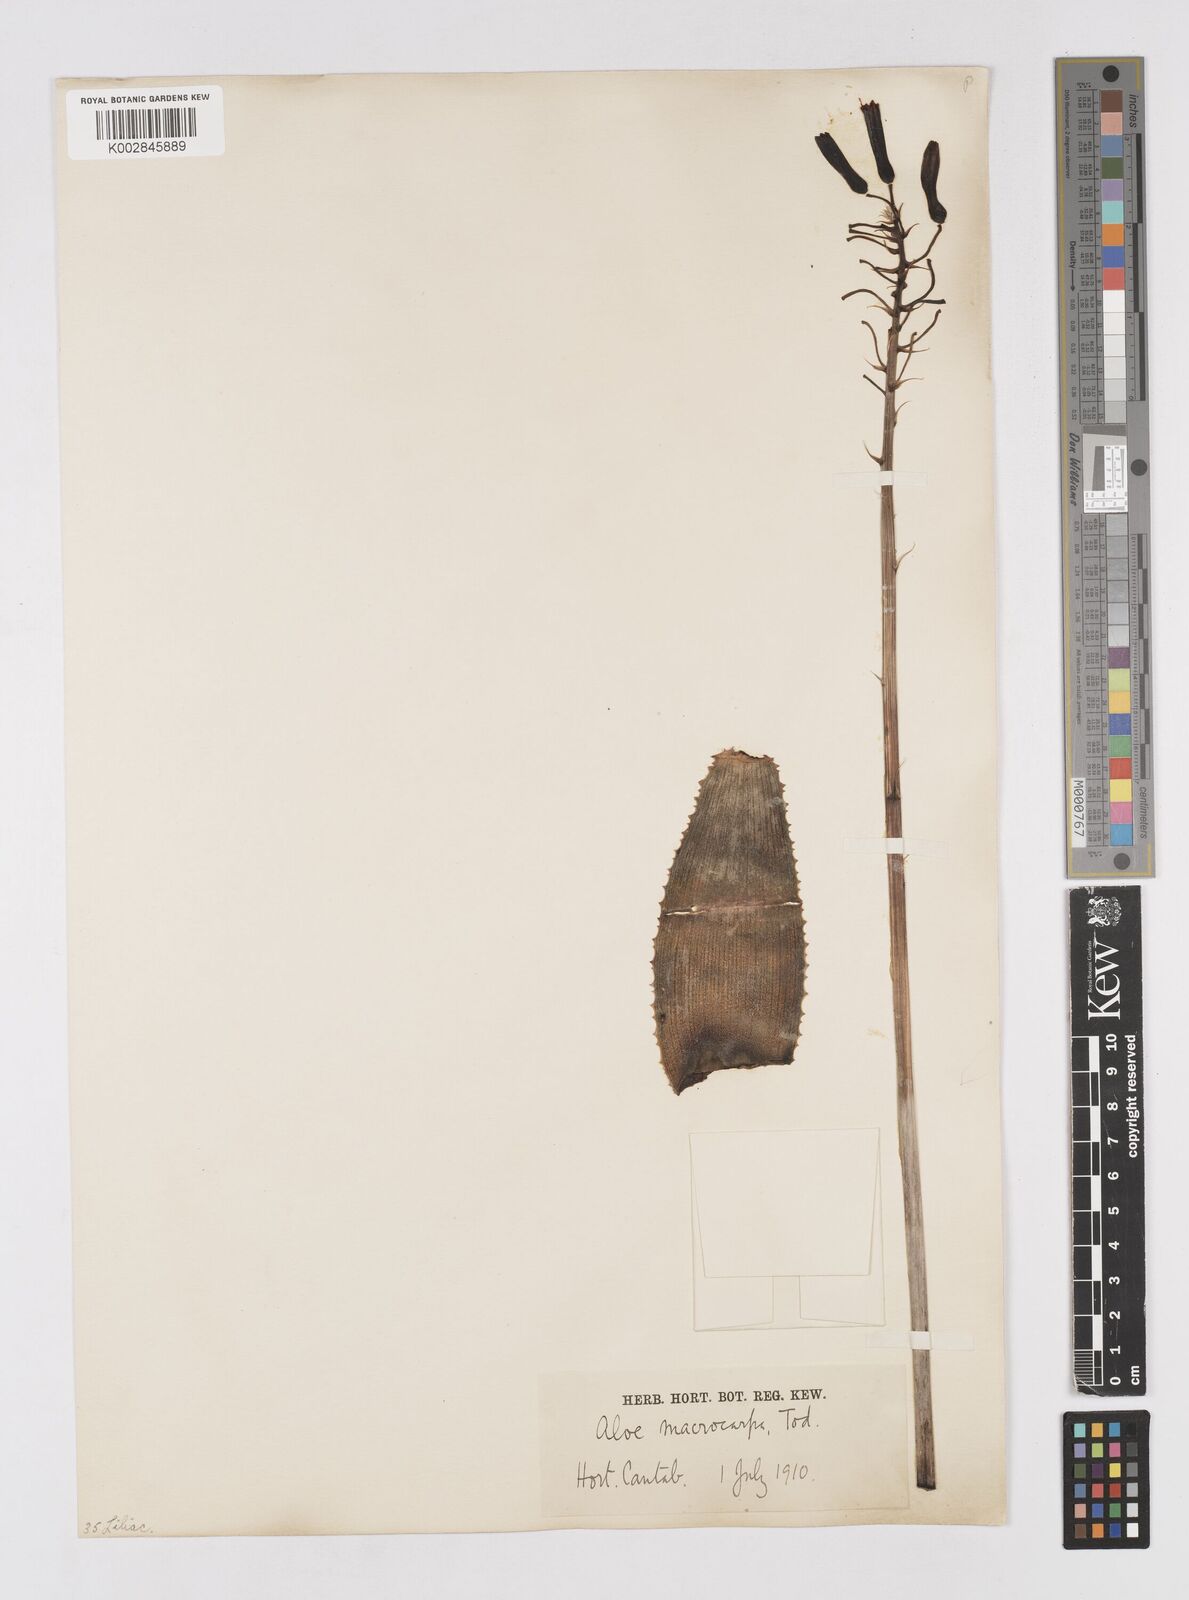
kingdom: Plantae
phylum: Tracheophyta
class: Liliopsida
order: Asparagales
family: Asphodelaceae
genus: Aloe
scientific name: Aloe macrocarpa
